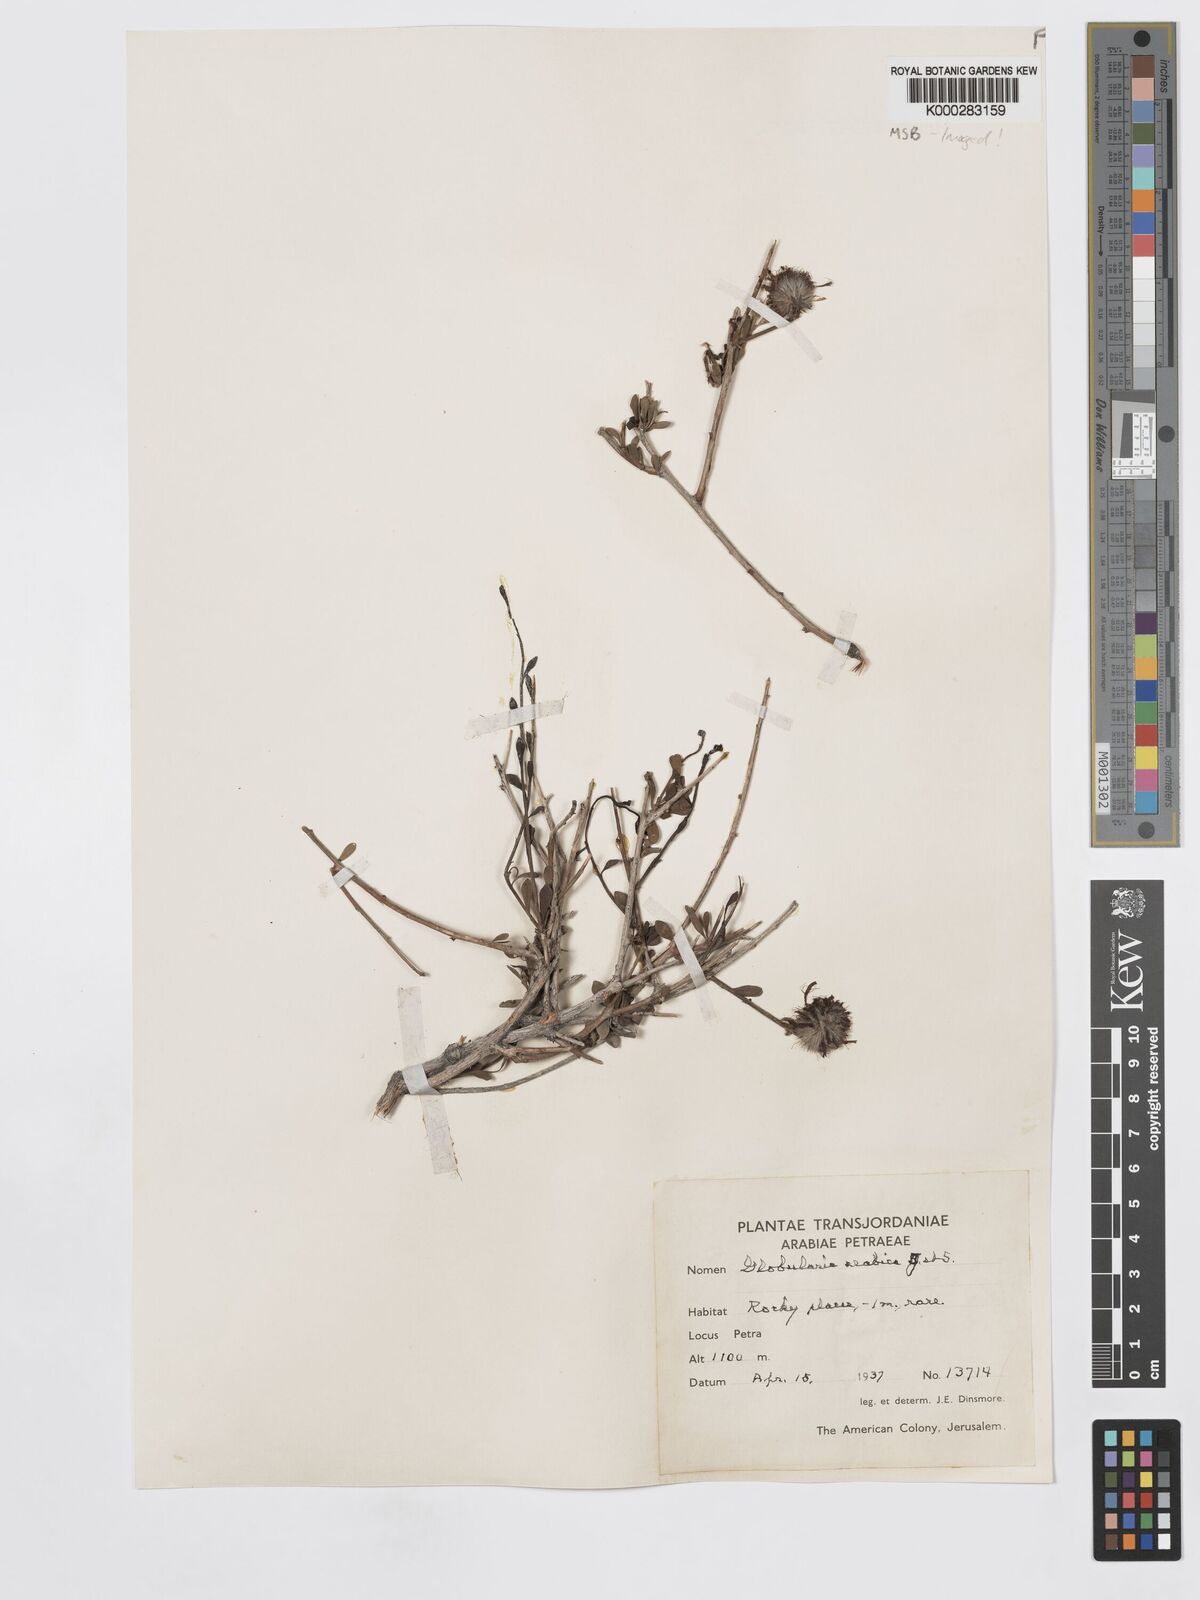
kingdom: Plantae
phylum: Tracheophyta
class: Magnoliopsida
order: Lamiales
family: Plantaginaceae
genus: Globularia
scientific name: Globularia arabica
